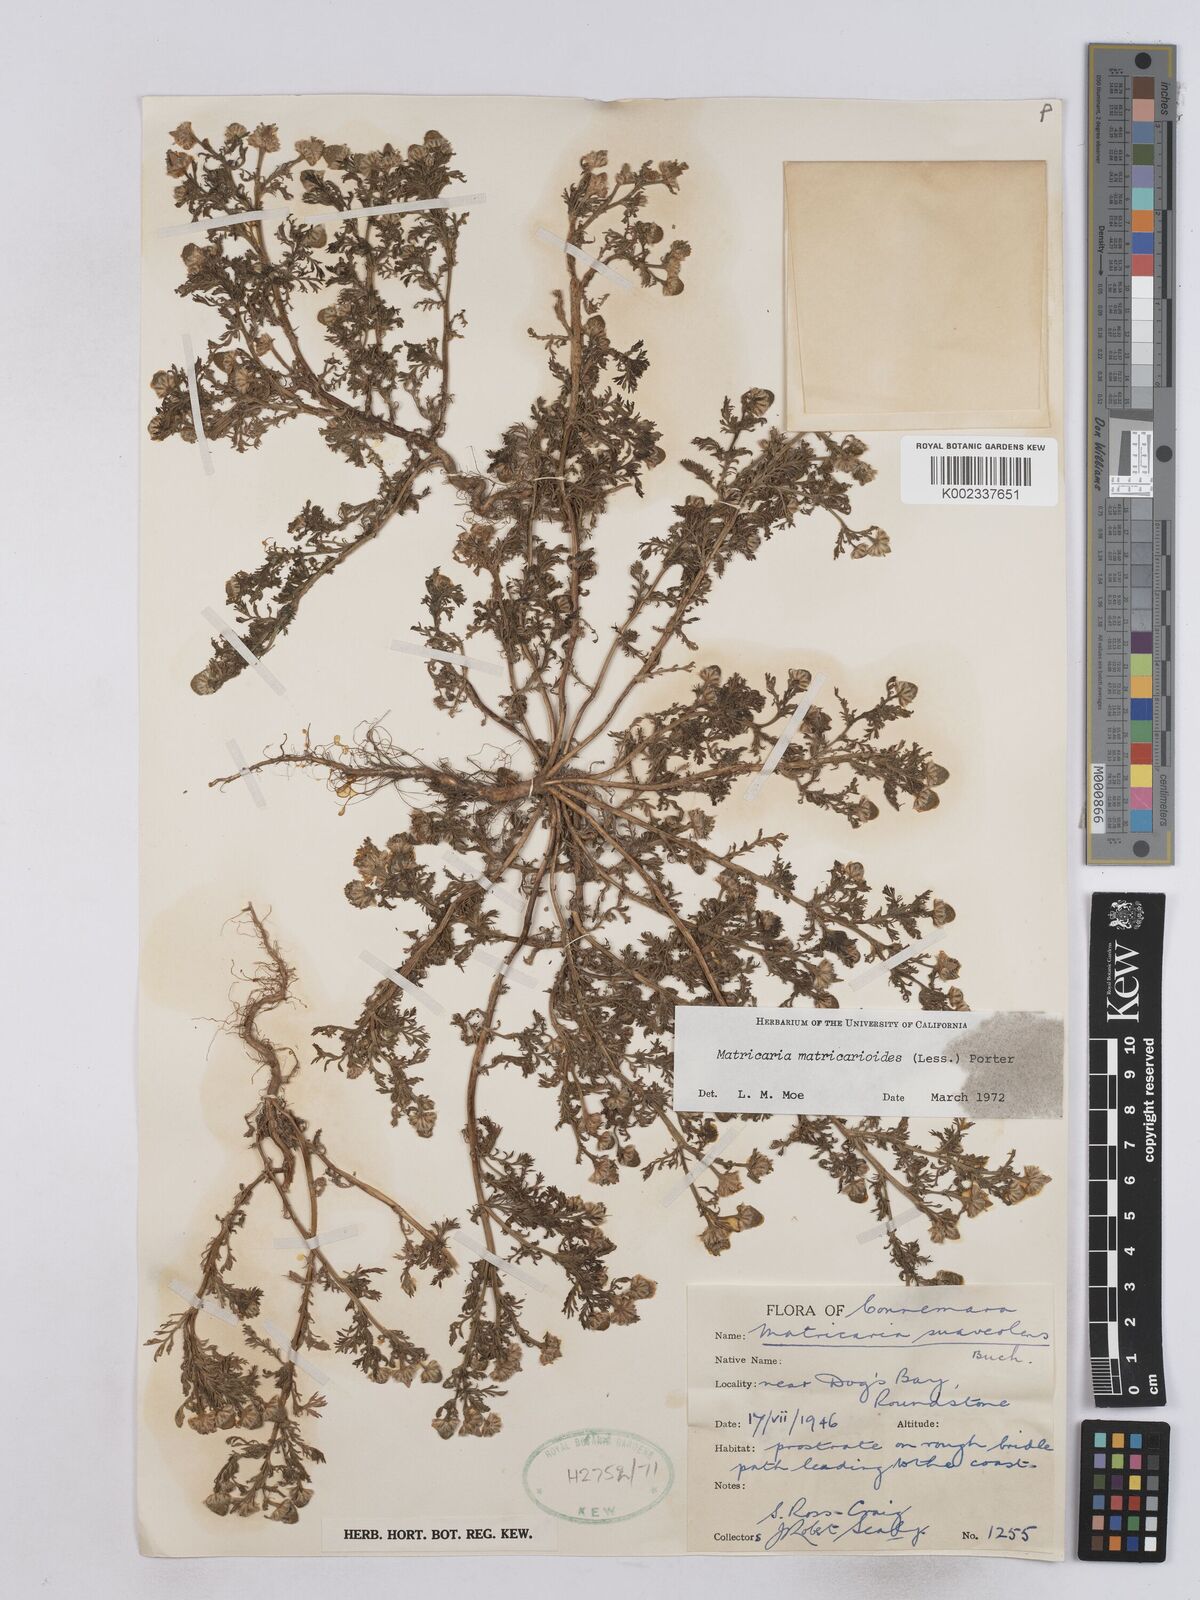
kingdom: Plantae
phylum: Tracheophyta
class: Magnoliopsida
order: Asterales
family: Asteraceae
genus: Matricaria
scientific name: Matricaria discoidea
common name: Disc mayweed
